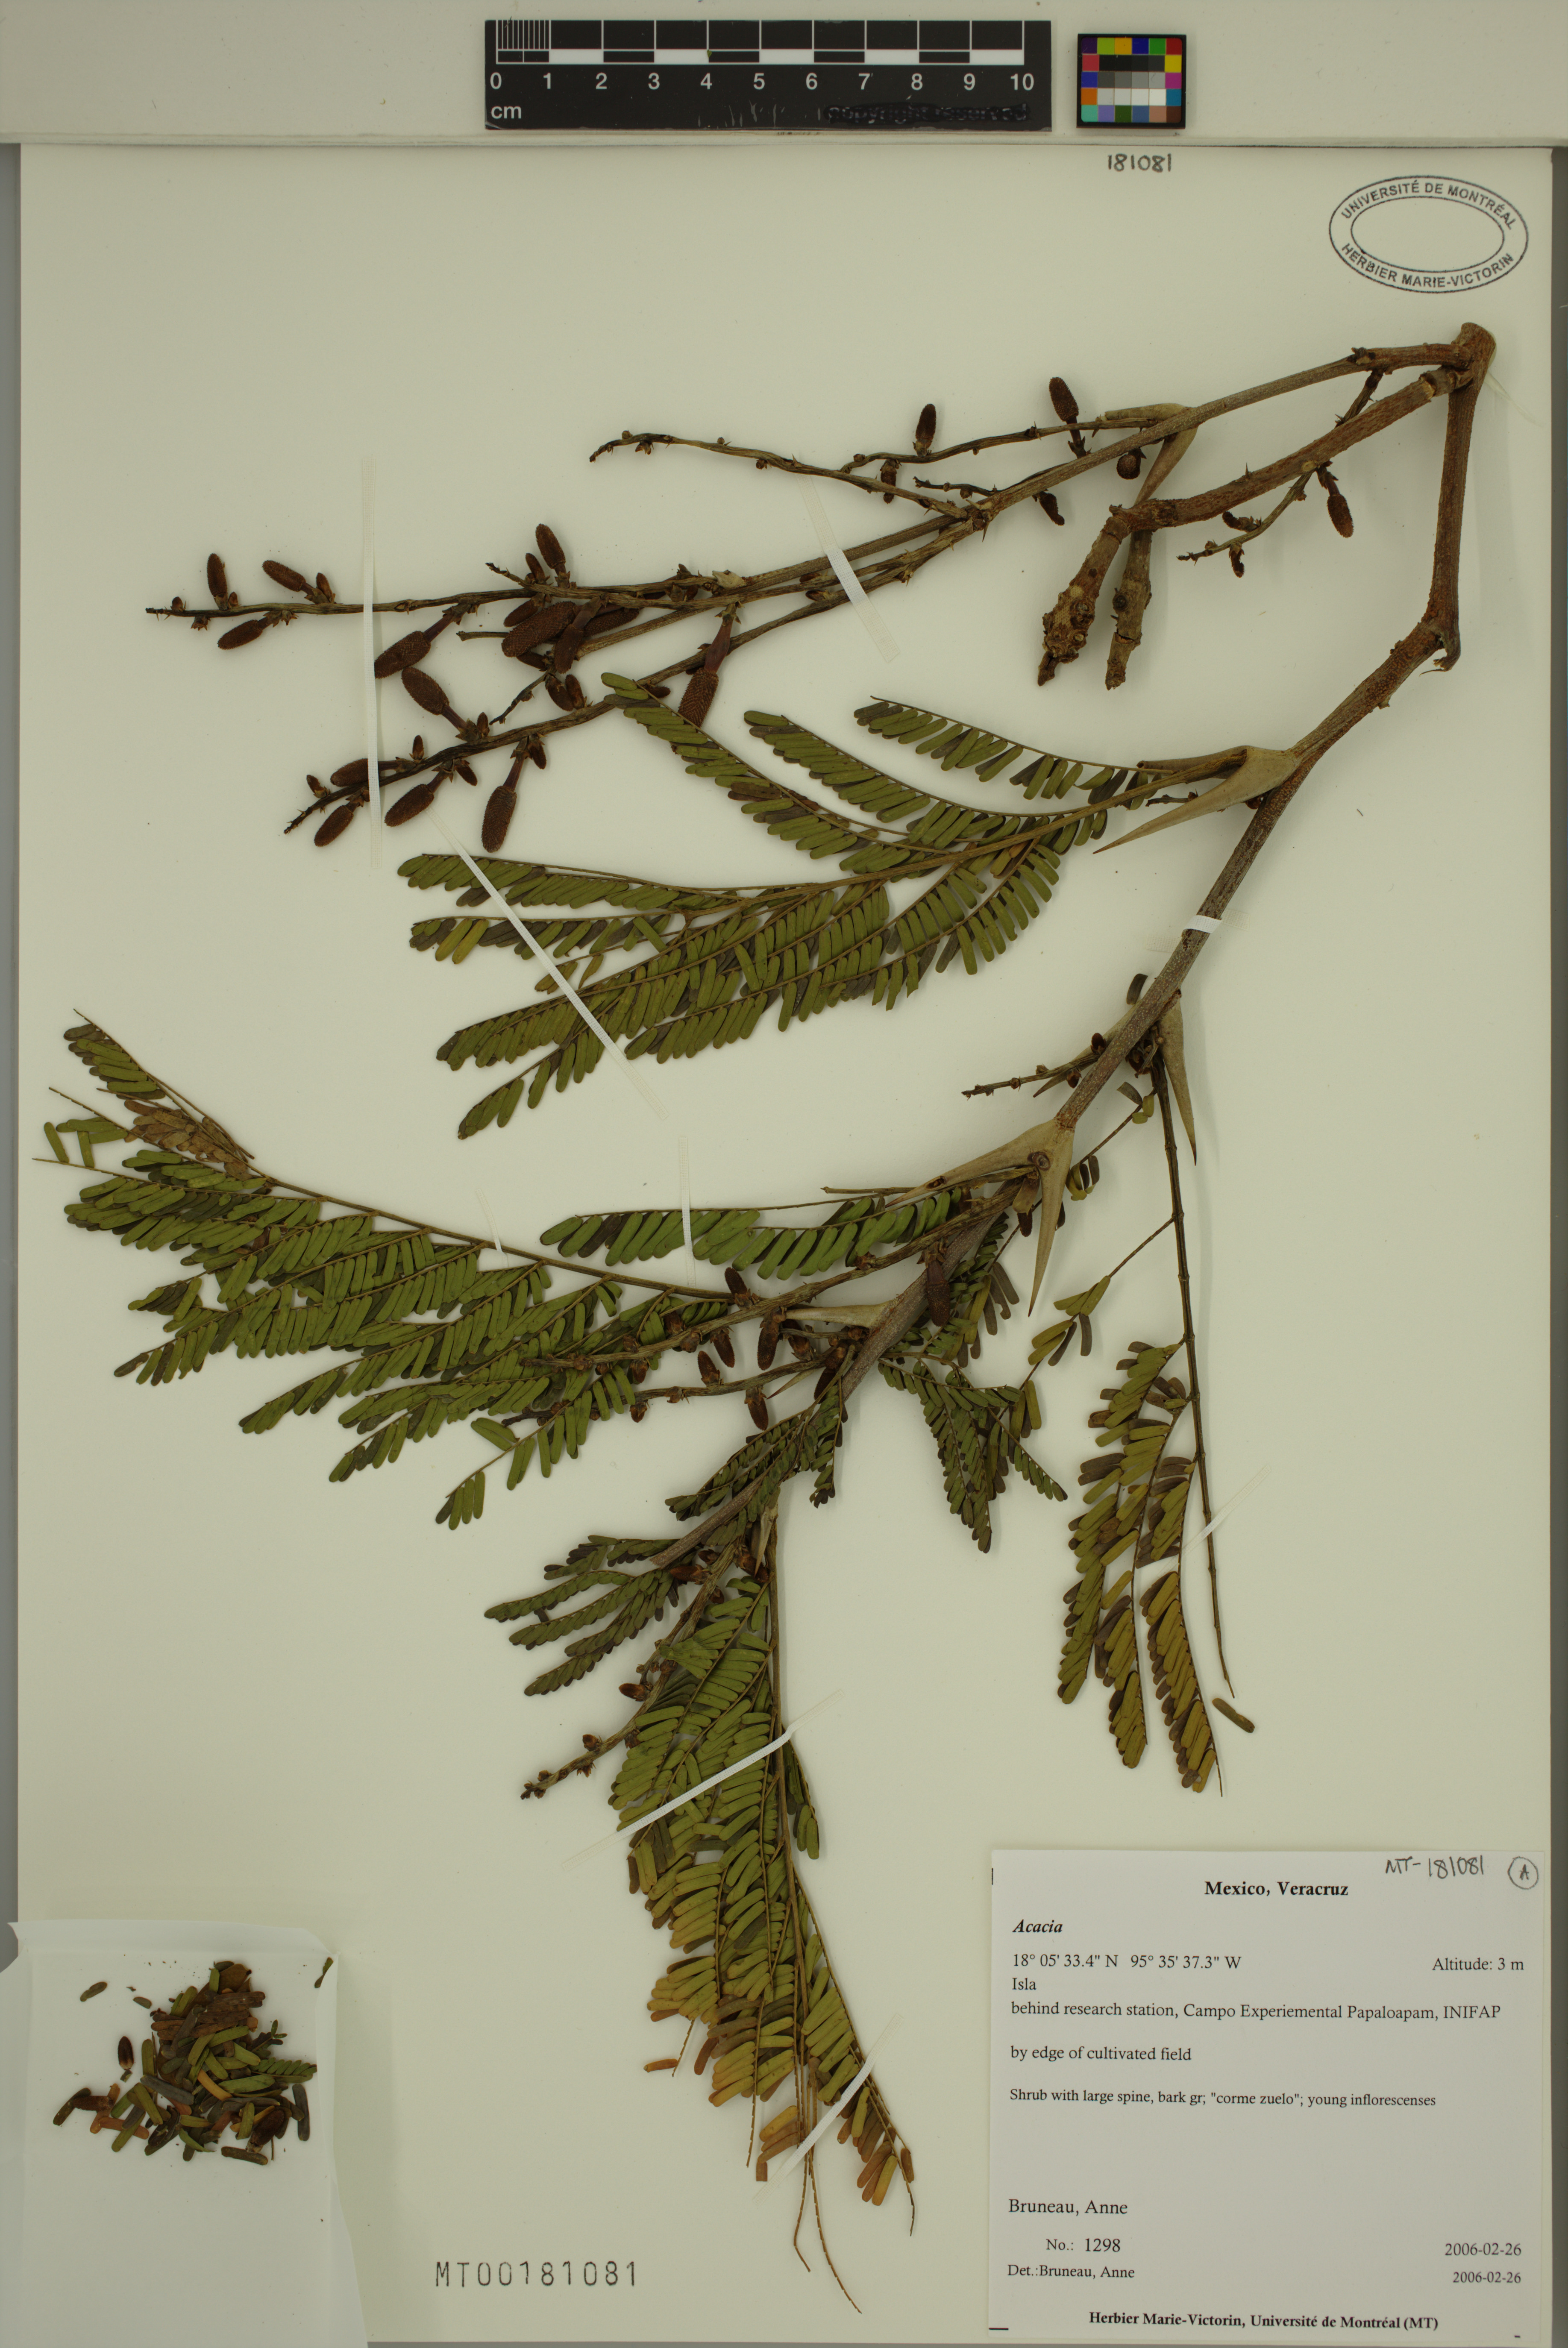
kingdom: Plantae
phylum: Tracheophyta
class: Magnoliopsida
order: Fabales
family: Fabaceae
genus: Acacia
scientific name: Acacia
